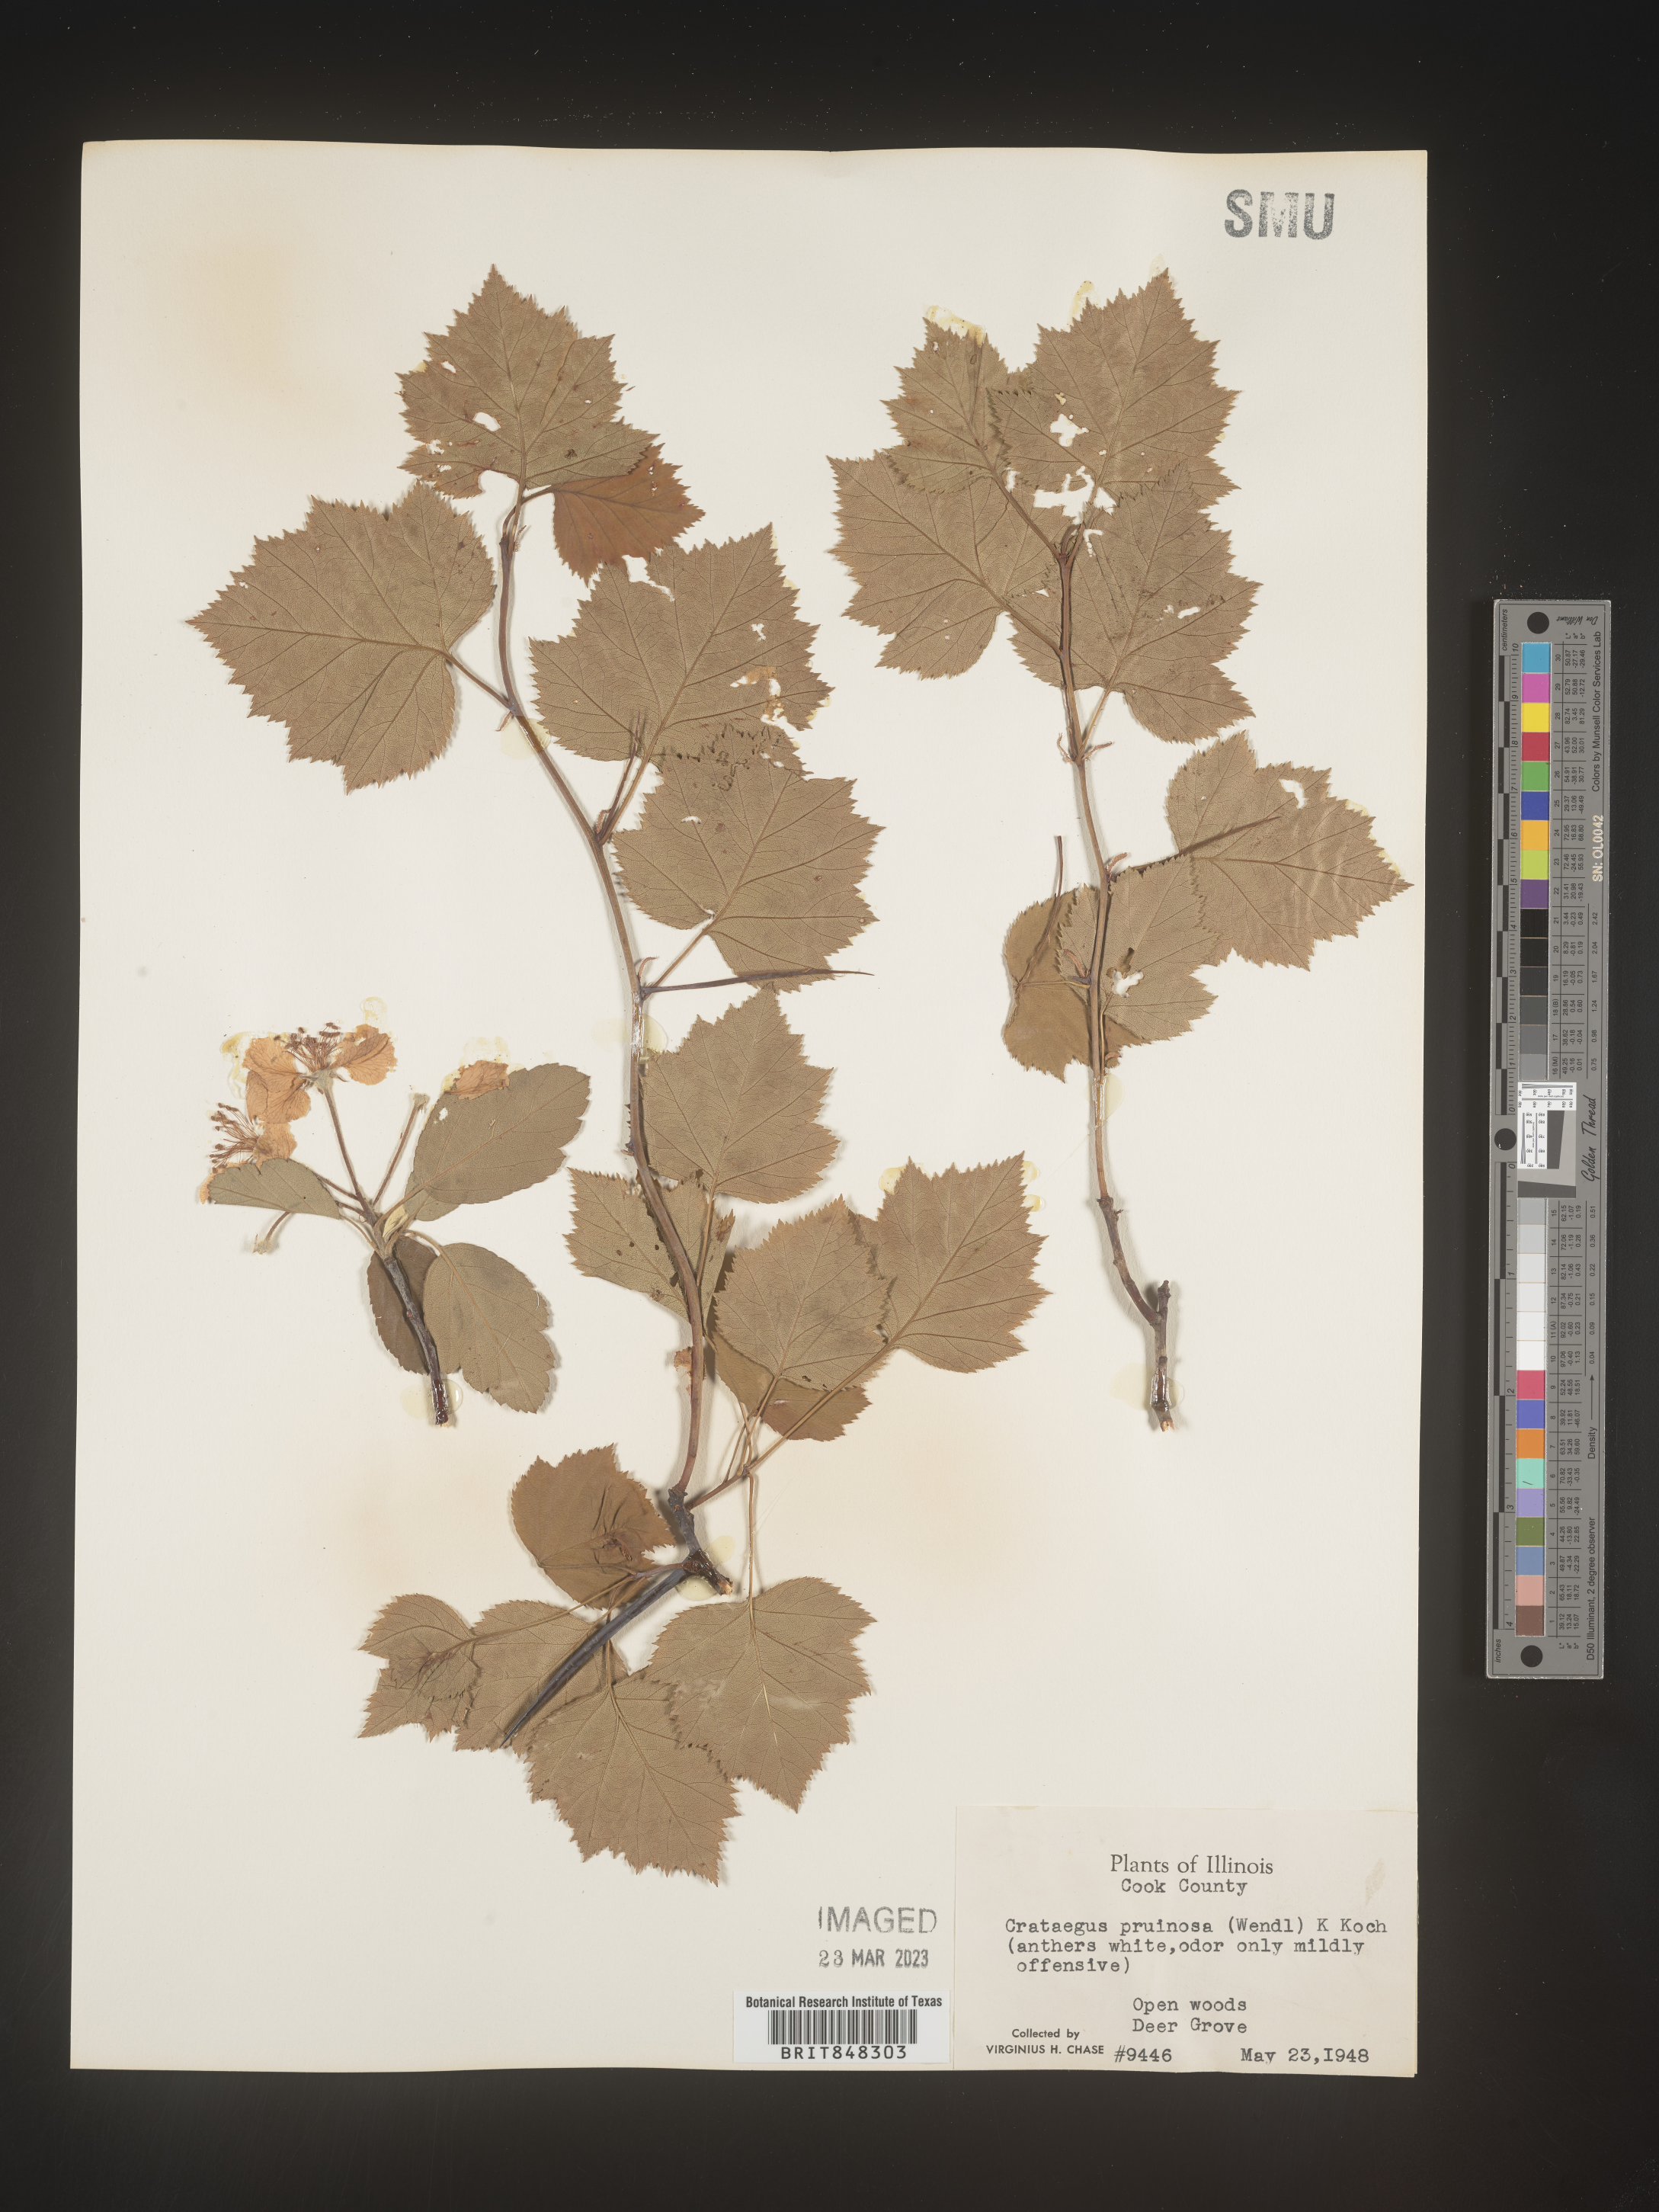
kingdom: Plantae
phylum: Tracheophyta
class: Magnoliopsida
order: Rosales
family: Rosaceae
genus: Crataegus
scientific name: Crataegus pruinosa
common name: Waxy-fruit hawthorn
